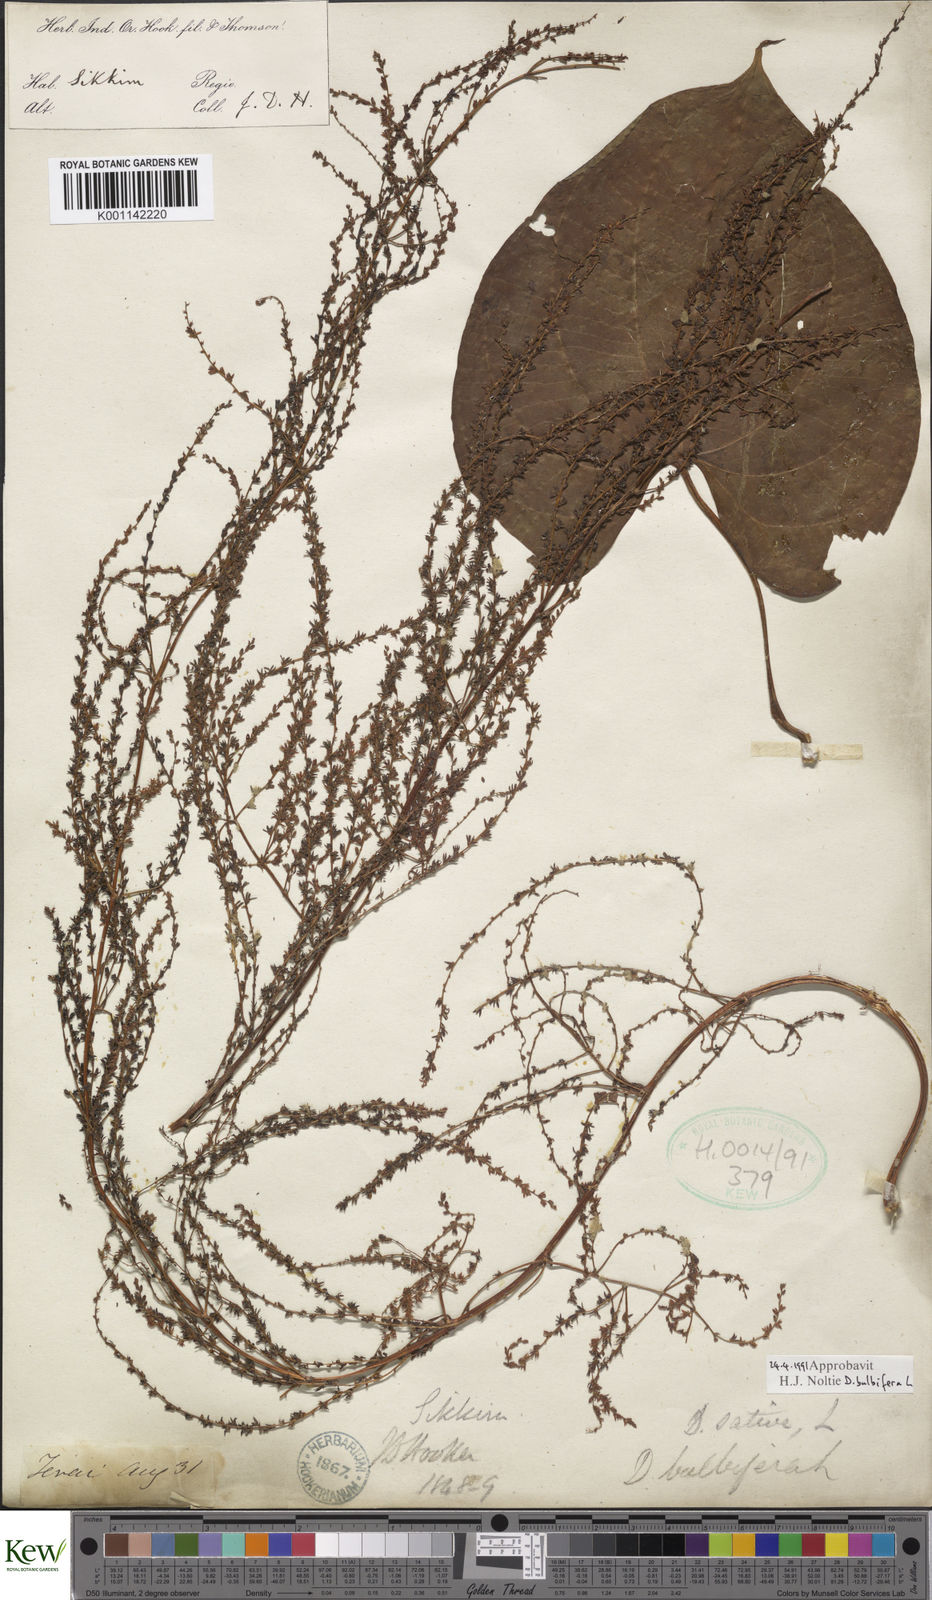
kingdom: Plantae
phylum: Tracheophyta
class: Liliopsida
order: Dioscoreales
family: Dioscoreaceae
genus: Dioscorea
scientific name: Dioscorea bulbifera
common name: Air yam
